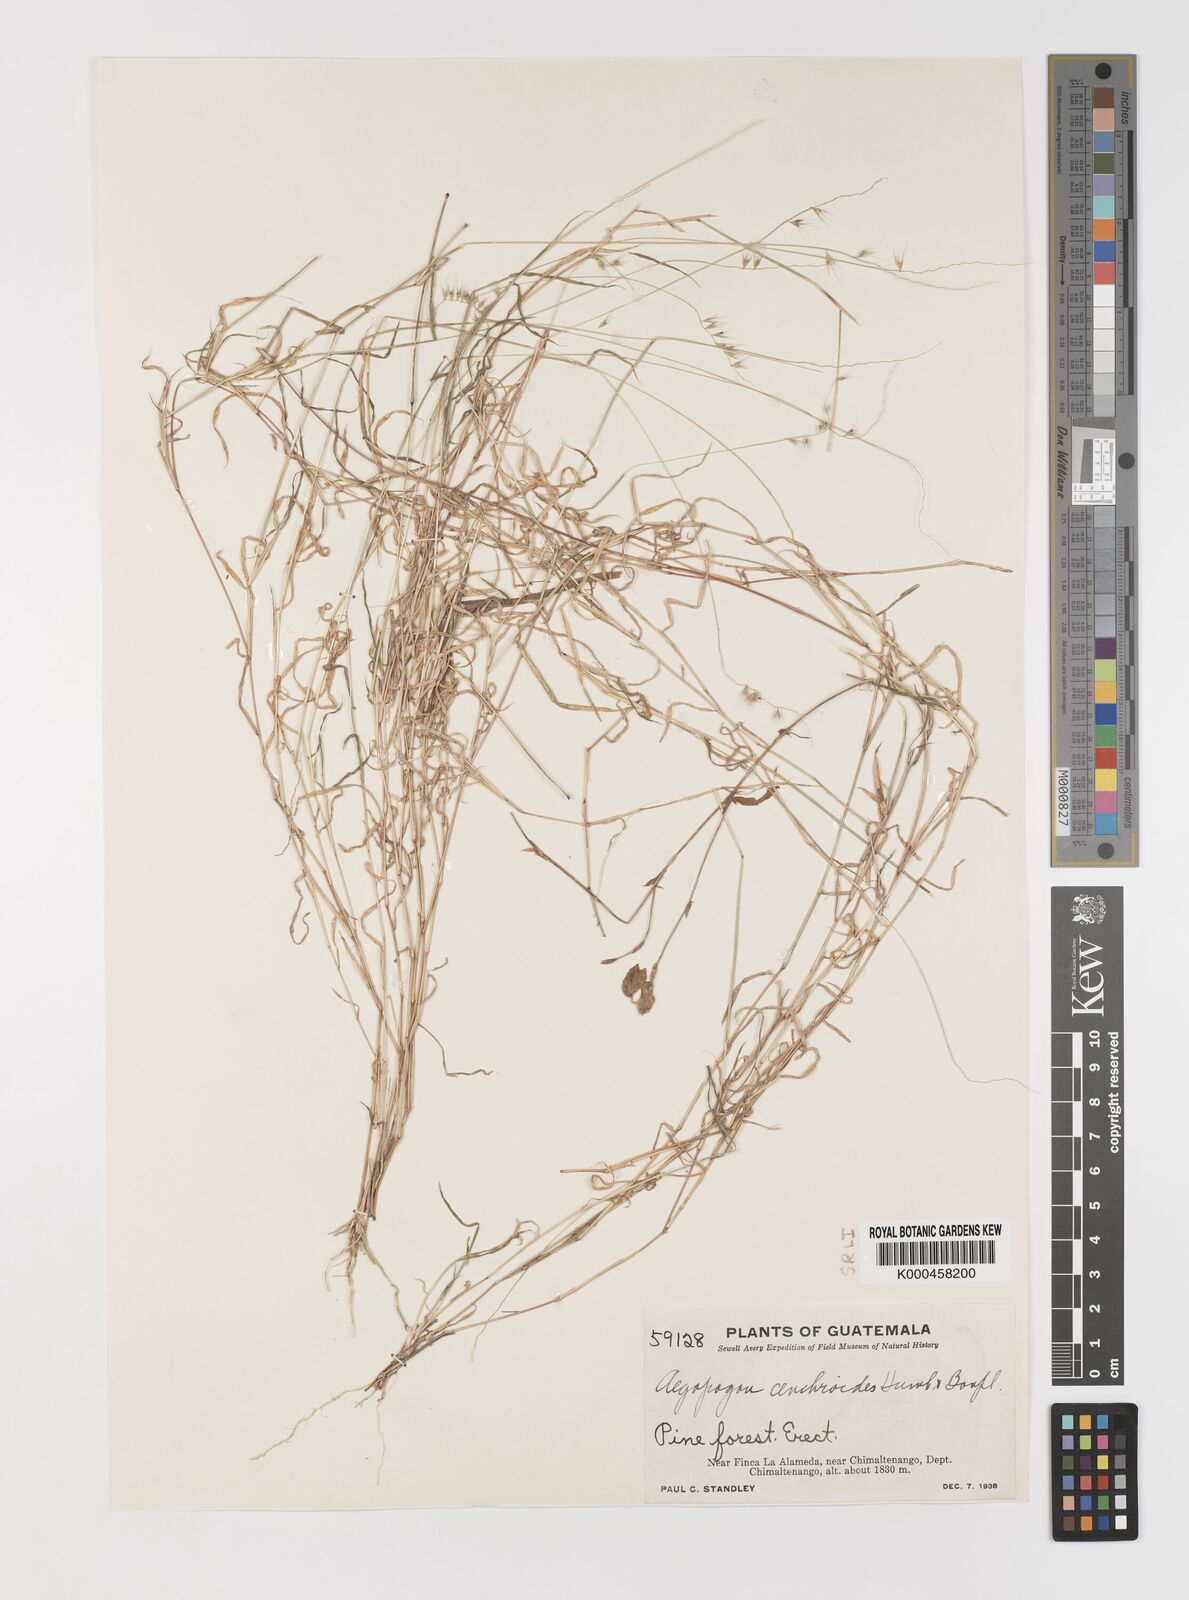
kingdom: Plantae
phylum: Tracheophyta
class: Liliopsida
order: Poales
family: Poaceae
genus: Muhlenbergia
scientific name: Muhlenbergia
